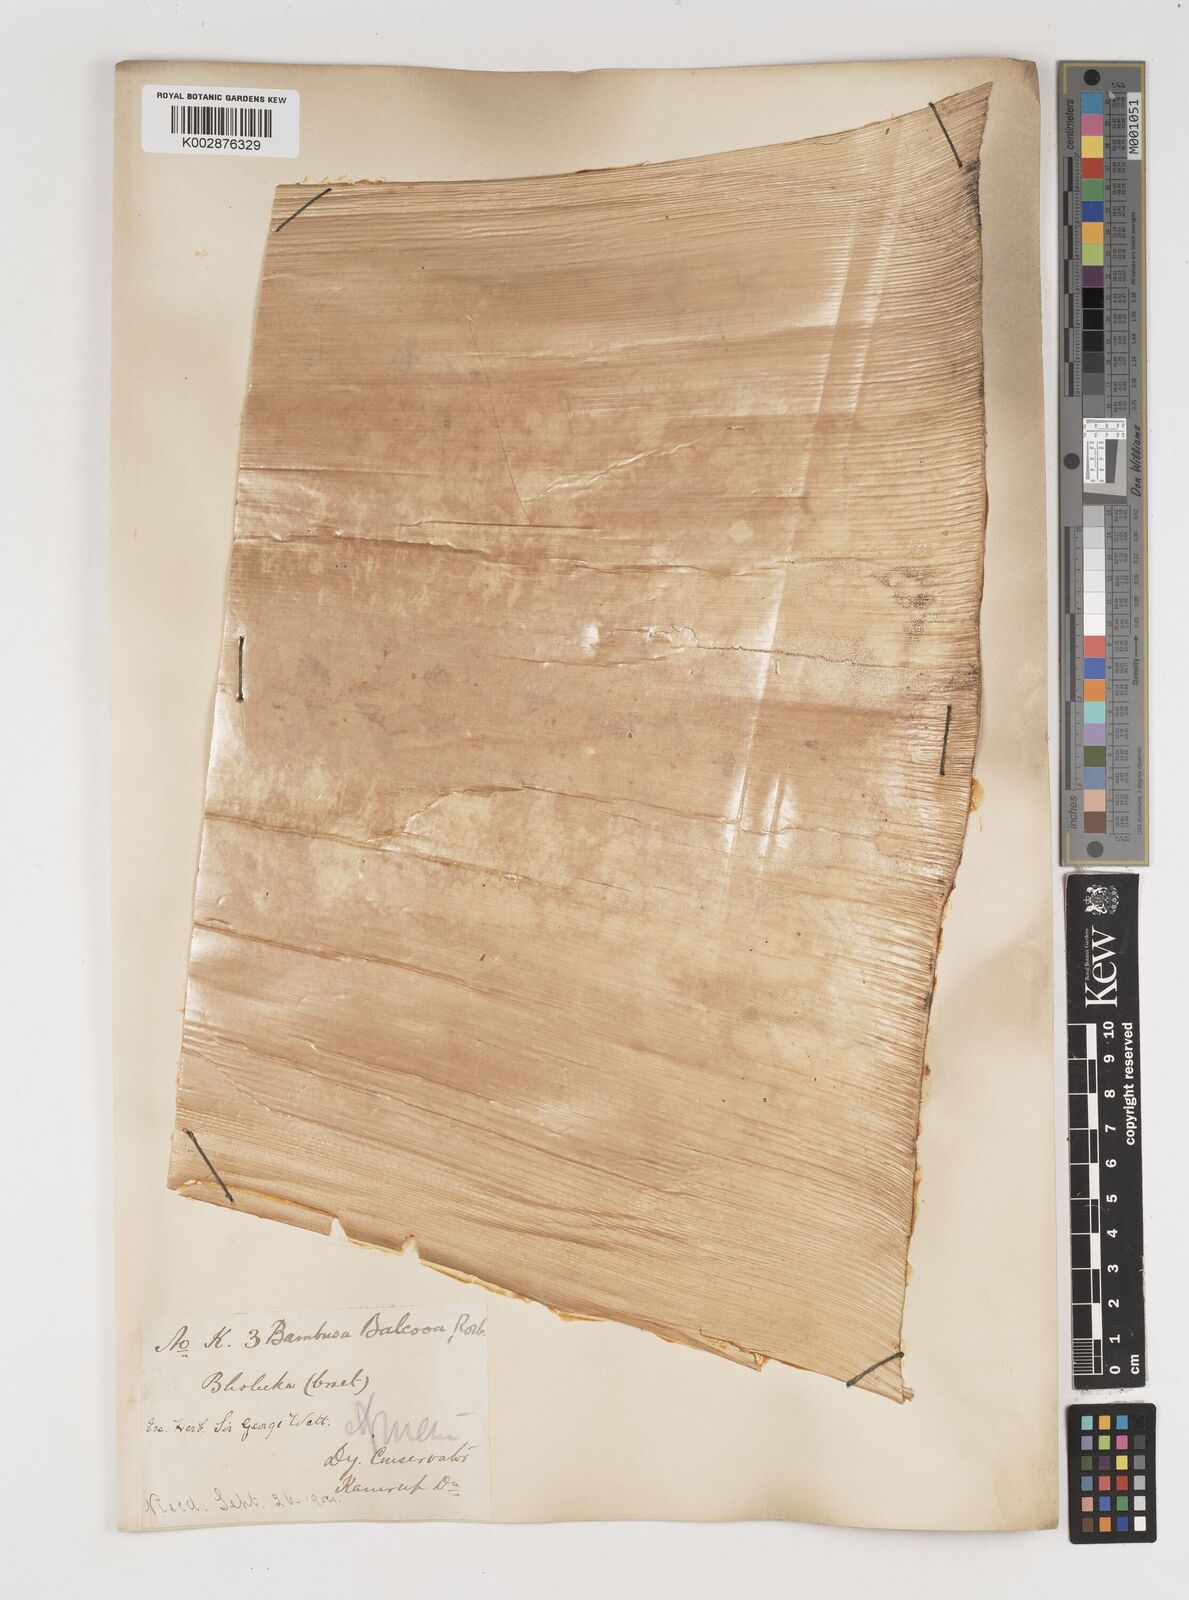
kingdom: Plantae
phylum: Tracheophyta
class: Liliopsida
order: Poales
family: Poaceae
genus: Bambusa
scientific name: Bambusa balcooa
